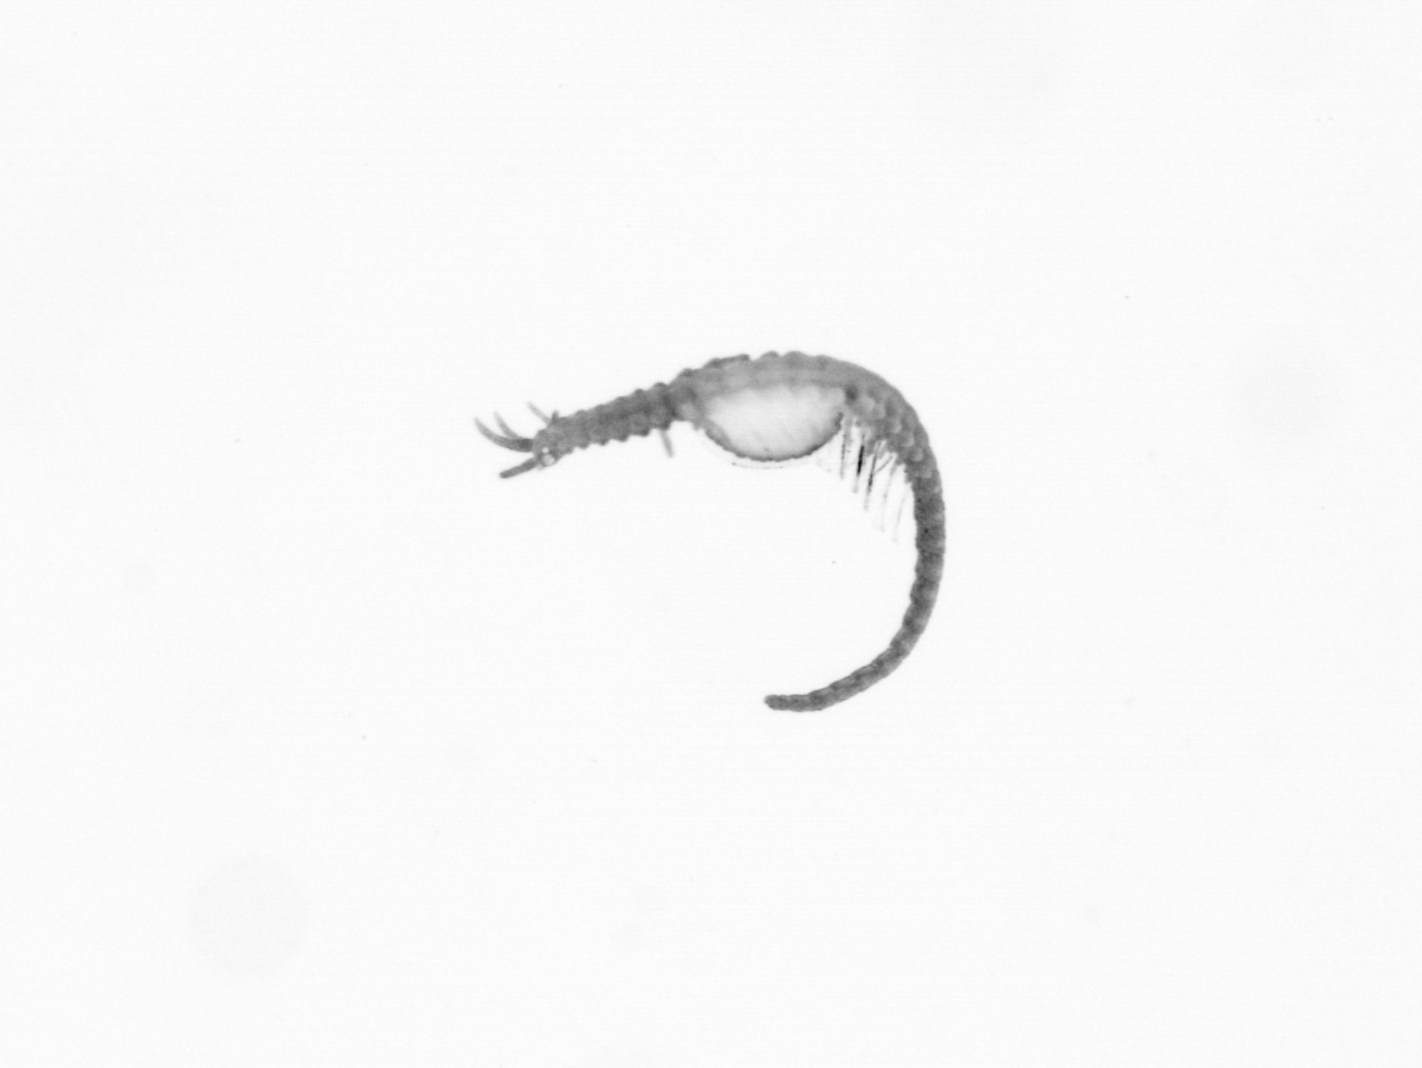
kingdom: Animalia
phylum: Annelida
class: Polychaeta
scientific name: Polychaeta
